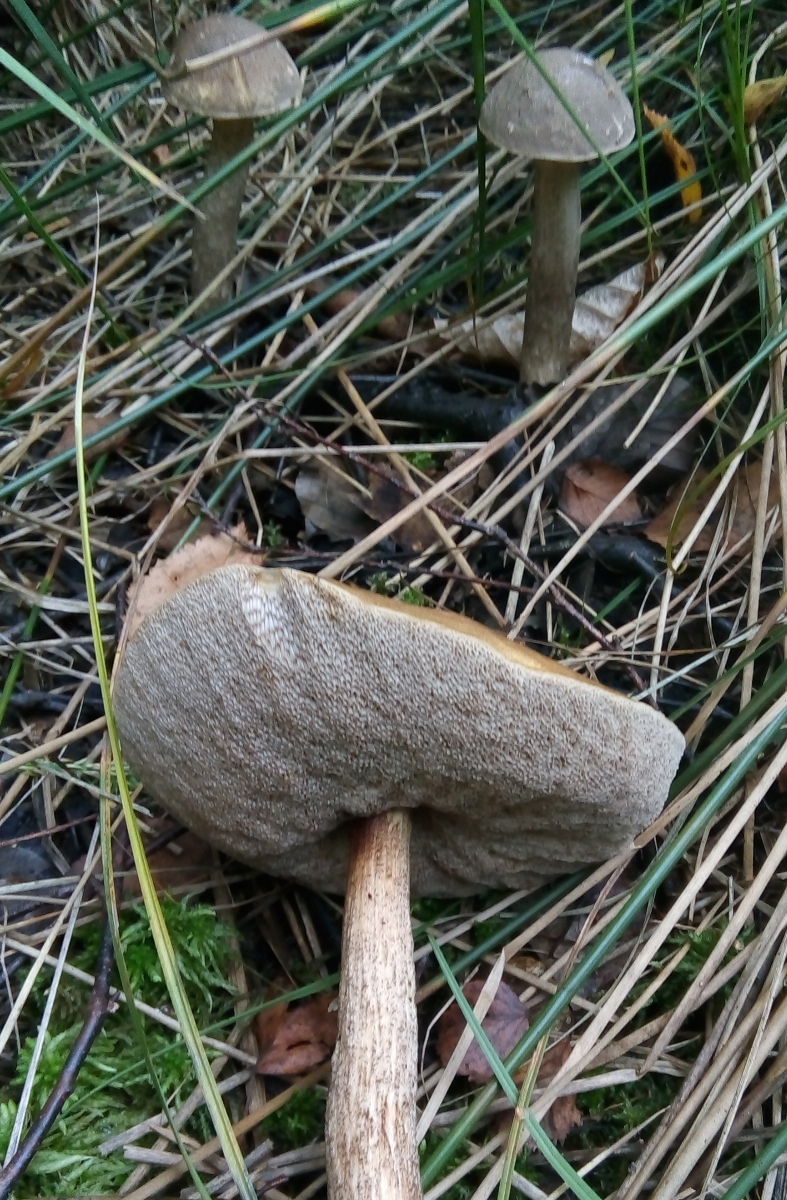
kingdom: Fungi
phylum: Basidiomycota
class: Agaricomycetes
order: Boletales
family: Boletaceae
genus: Leccinum
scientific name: Leccinum cyaneobasileucum
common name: almindelig skælrørhat
